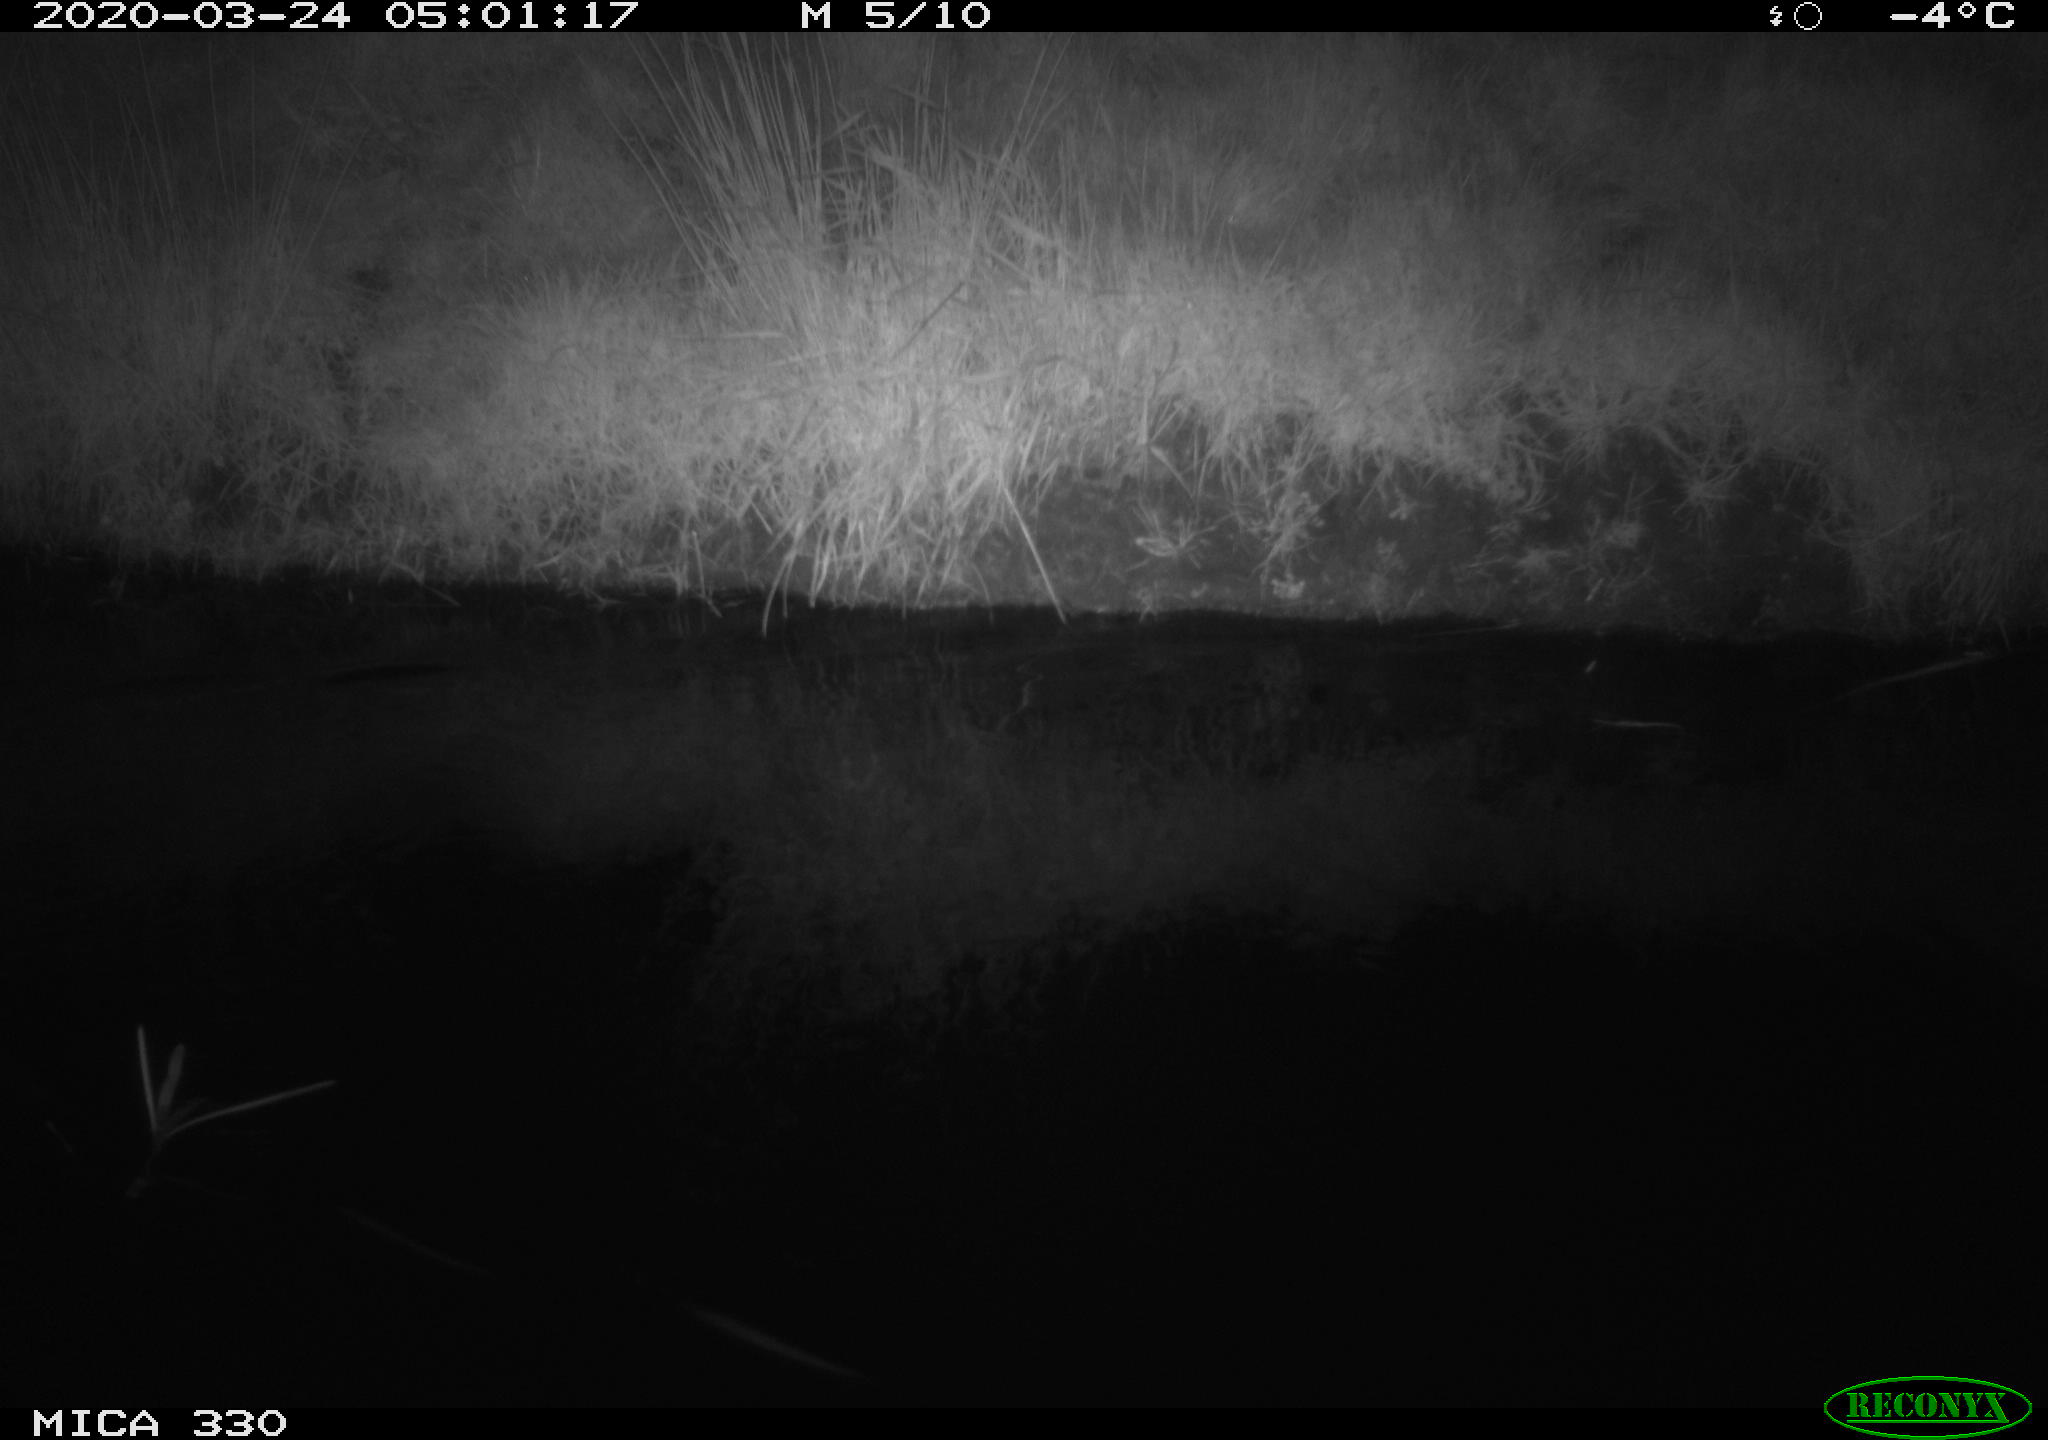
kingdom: Animalia
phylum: Chordata
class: Aves
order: Anseriformes
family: Anatidae
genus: Anas
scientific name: Anas platyrhynchos
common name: Mallard
